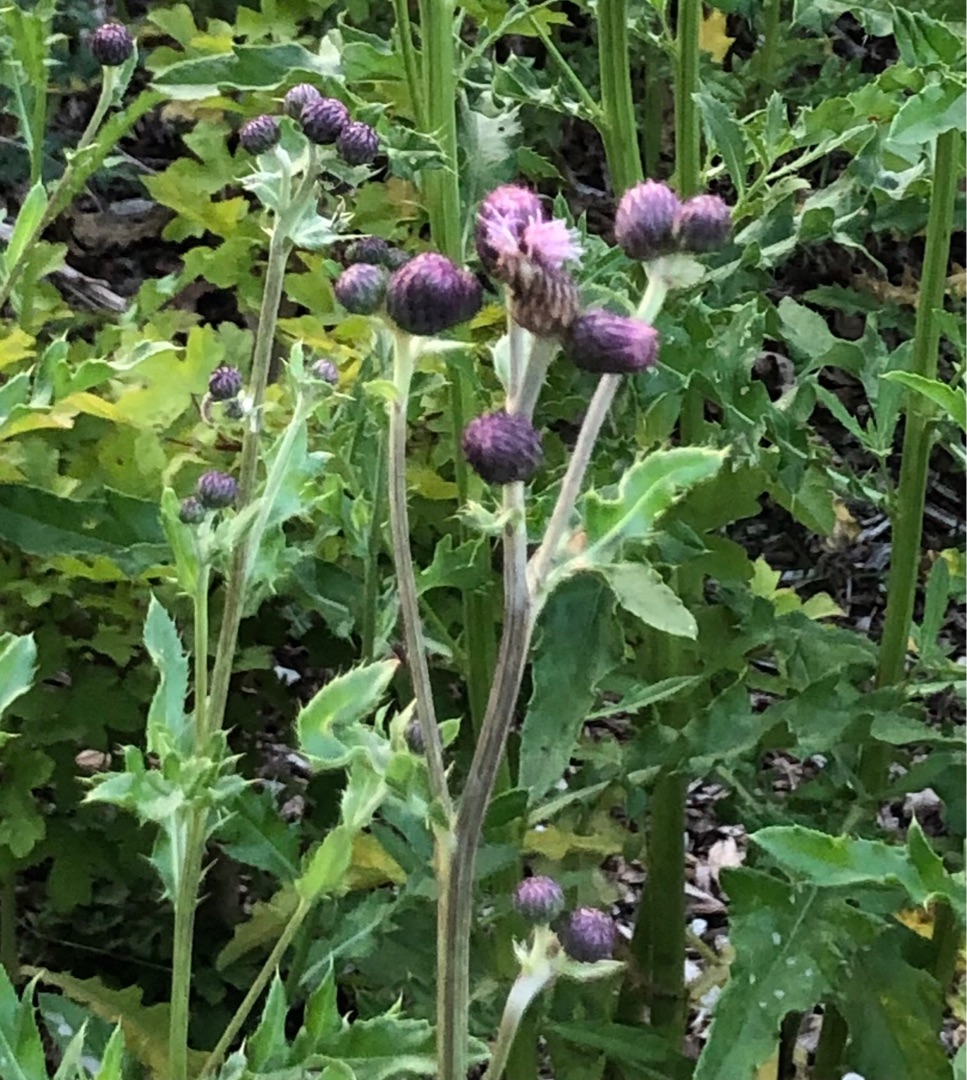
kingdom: Plantae
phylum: Tracheophyta
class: Magnoliopsida
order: Asterales
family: Asteraceae
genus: Cirsium
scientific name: Cirsium arvense
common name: Ager-tidsel
